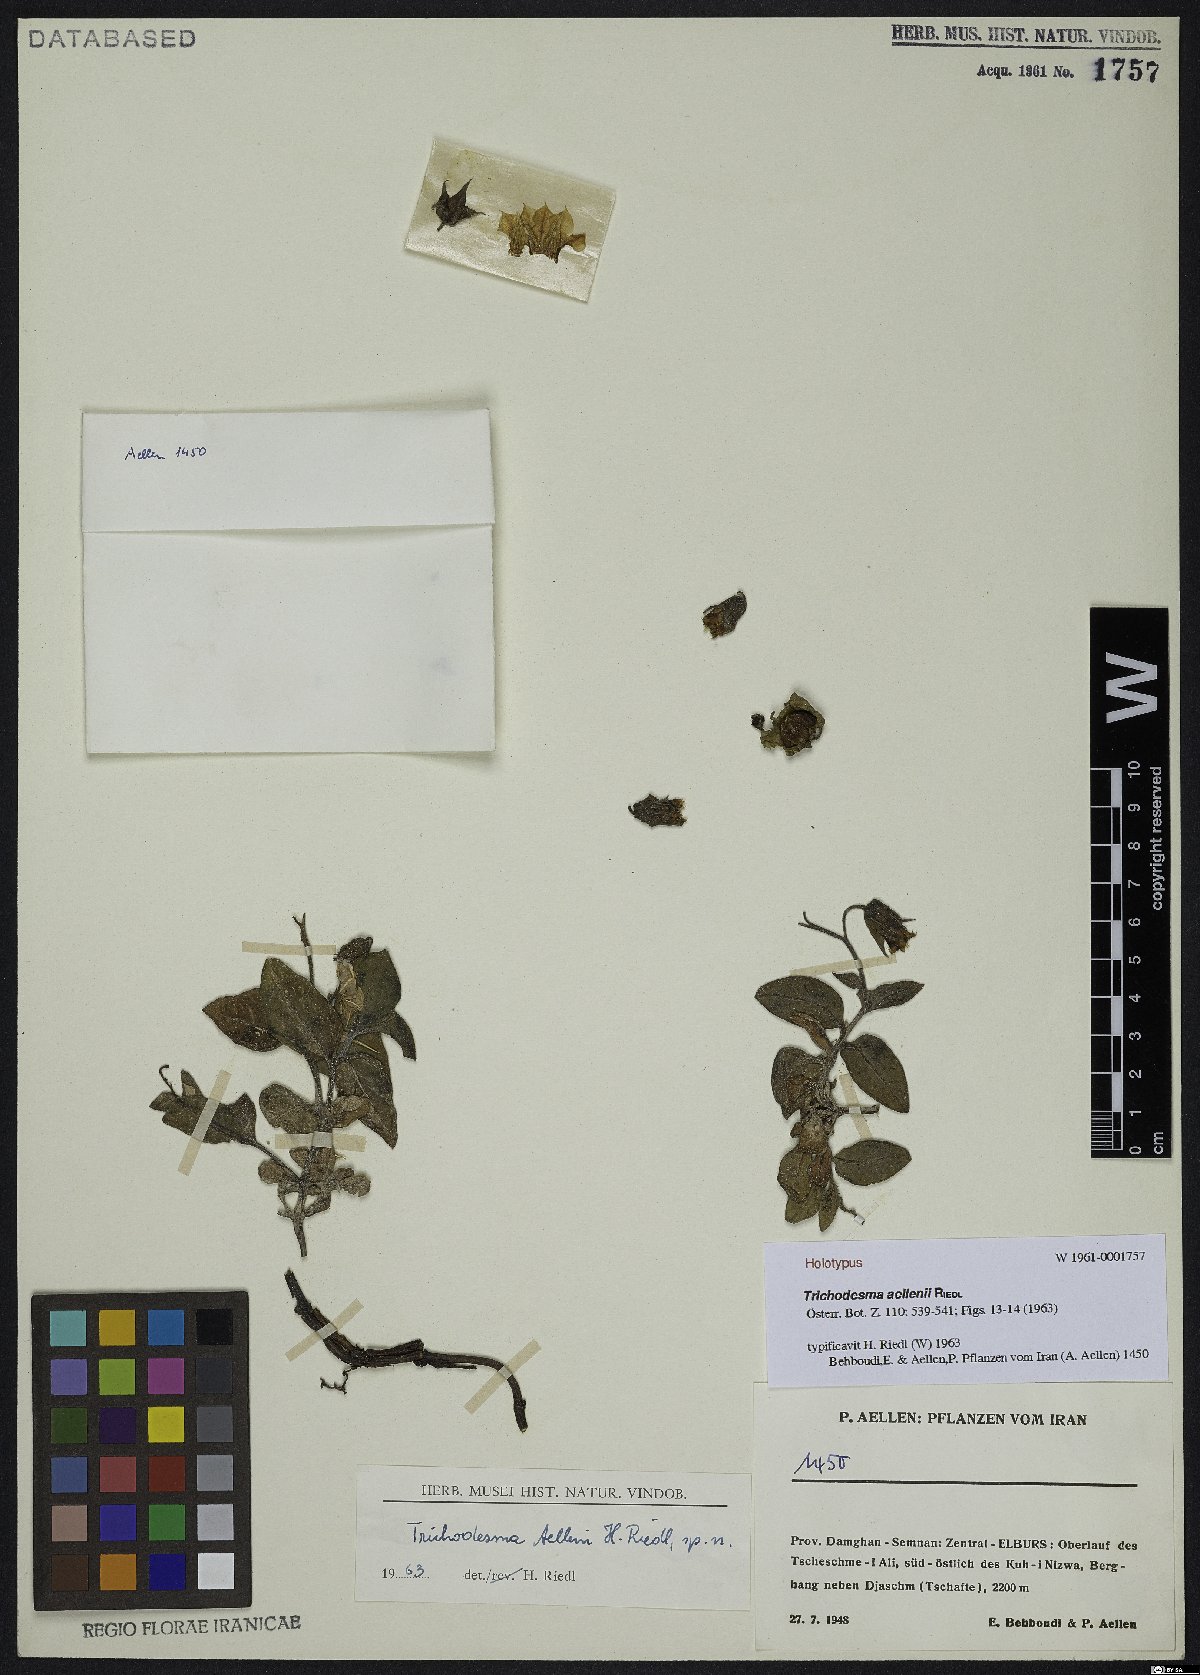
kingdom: Plantae
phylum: Tracheophyta
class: Magnoliopsida
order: Boraginales
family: Boraginaceae
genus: Trichodesma
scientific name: Trichodesma aellenii
